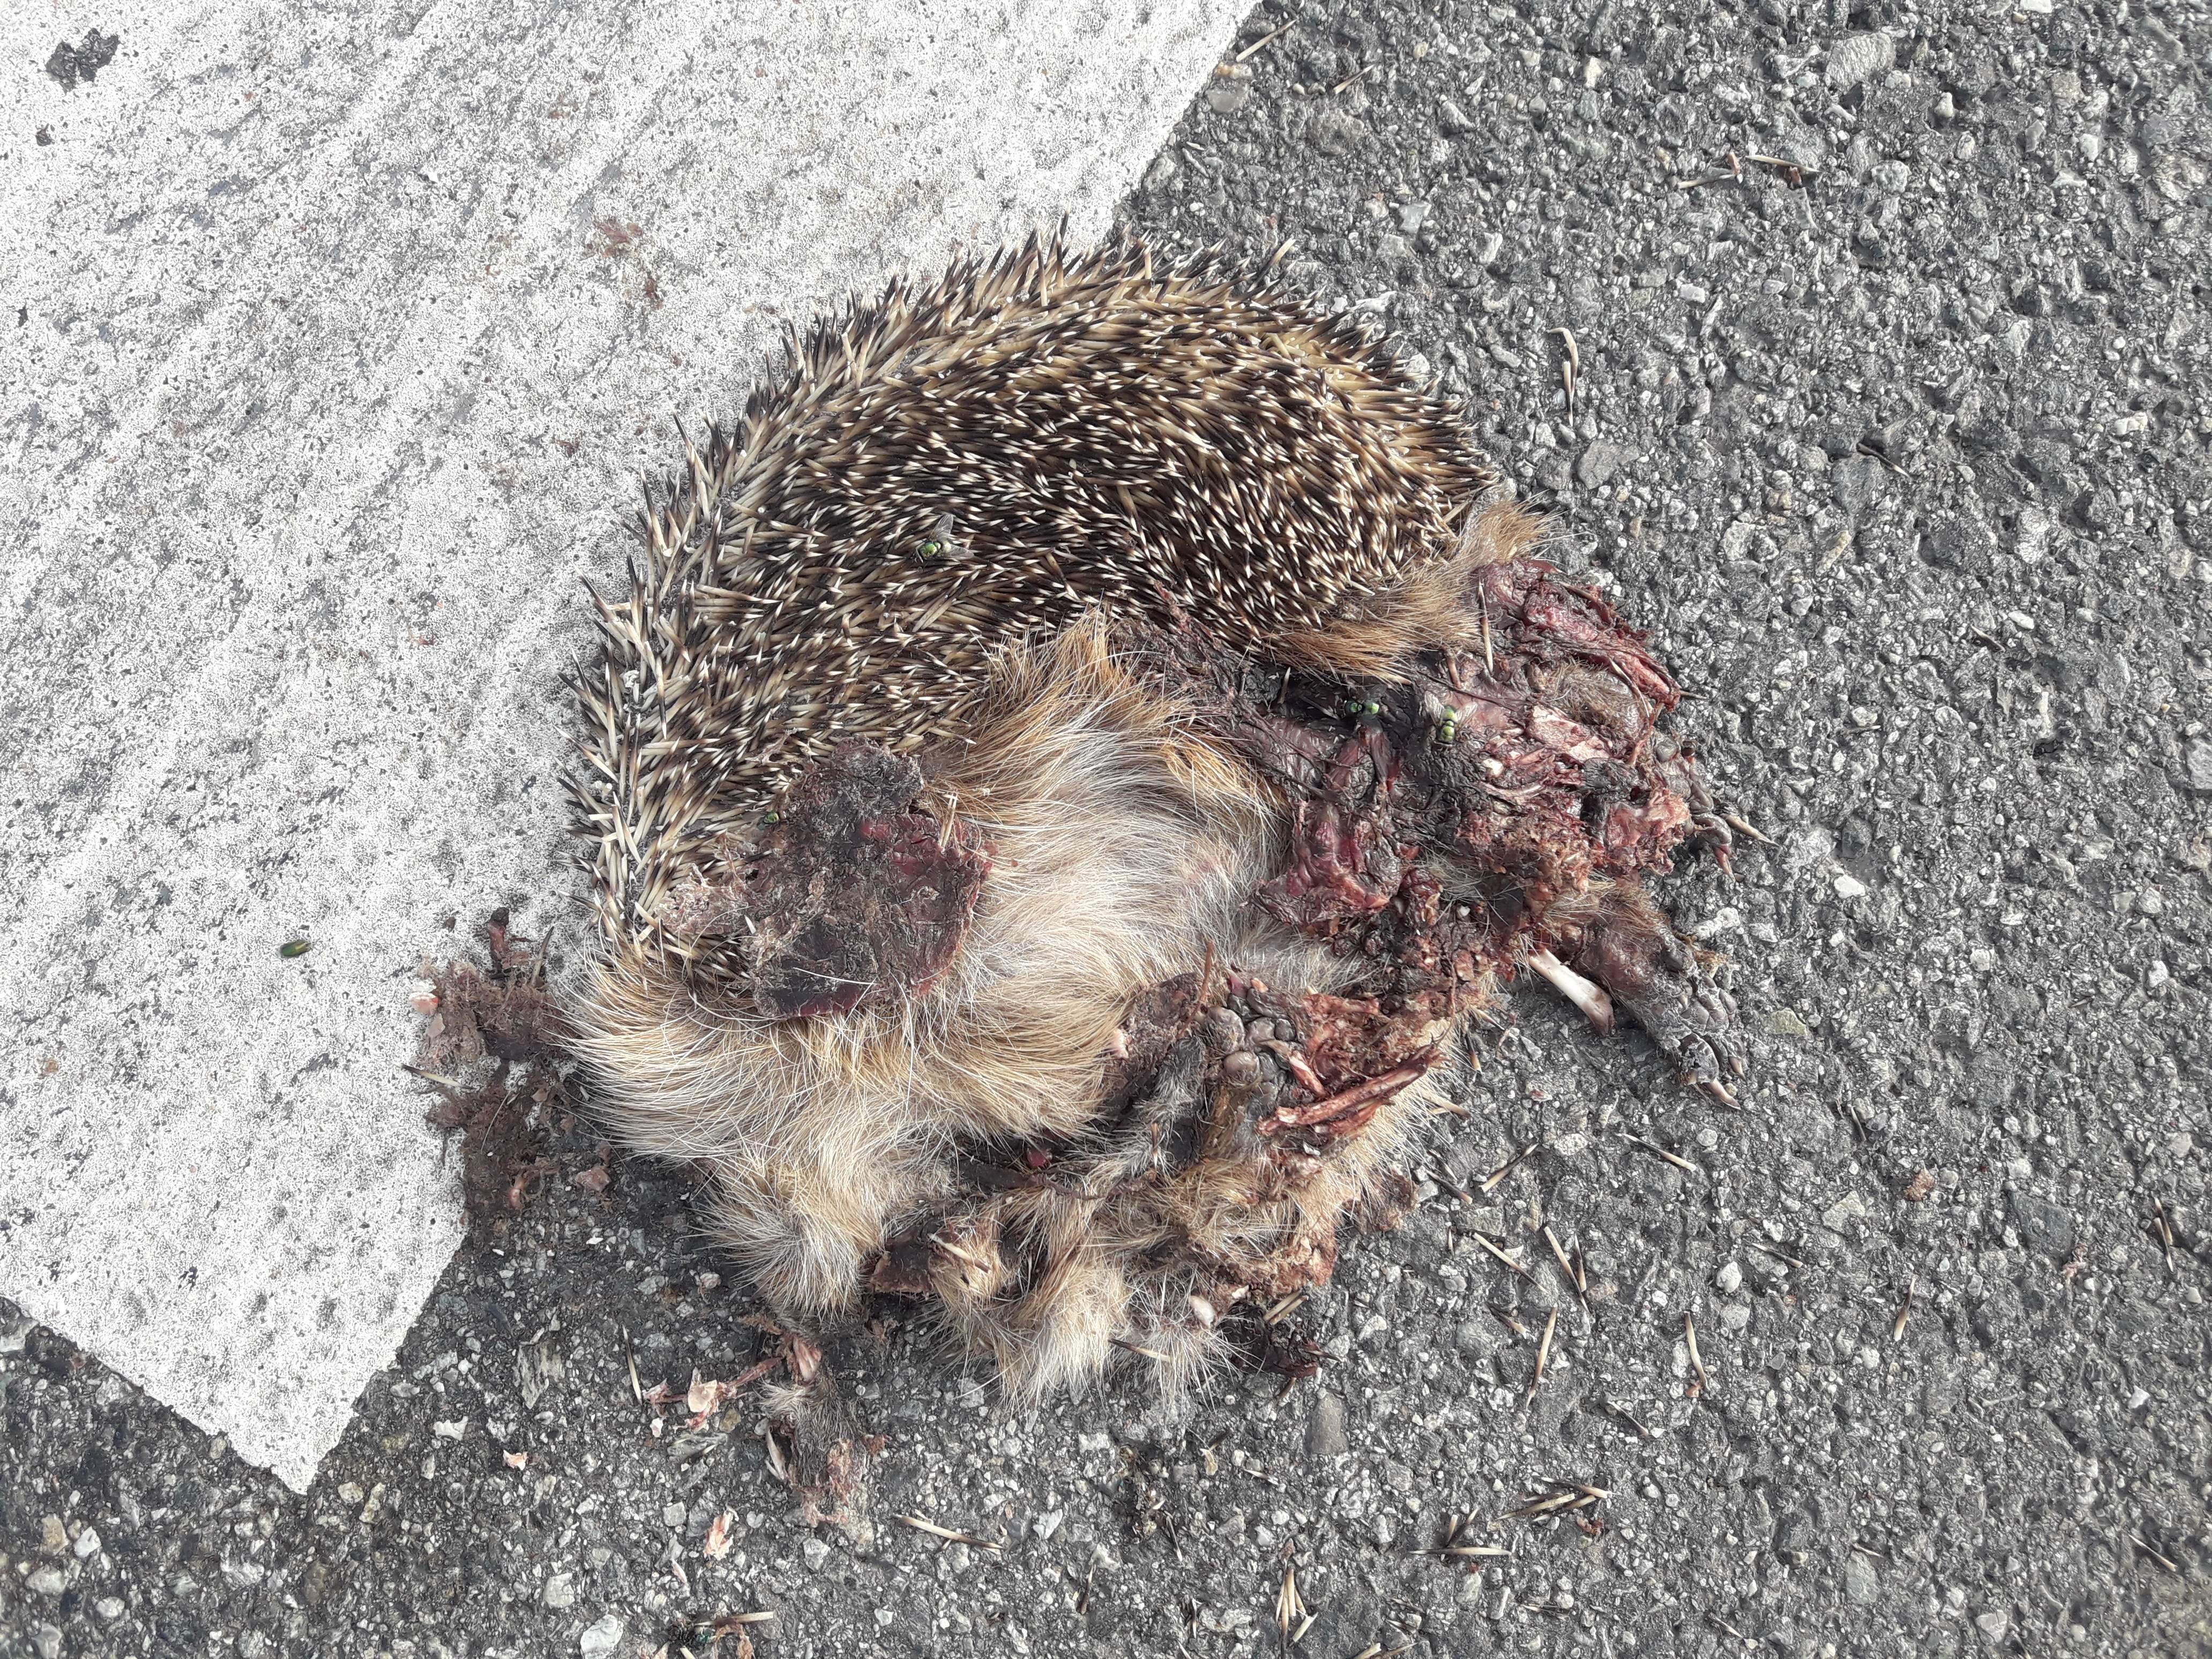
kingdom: Animalia
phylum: Chordata
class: Mammalia
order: Erinaceomorpha
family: Erinaceidae
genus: Erinaceus
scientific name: Erinaceus
